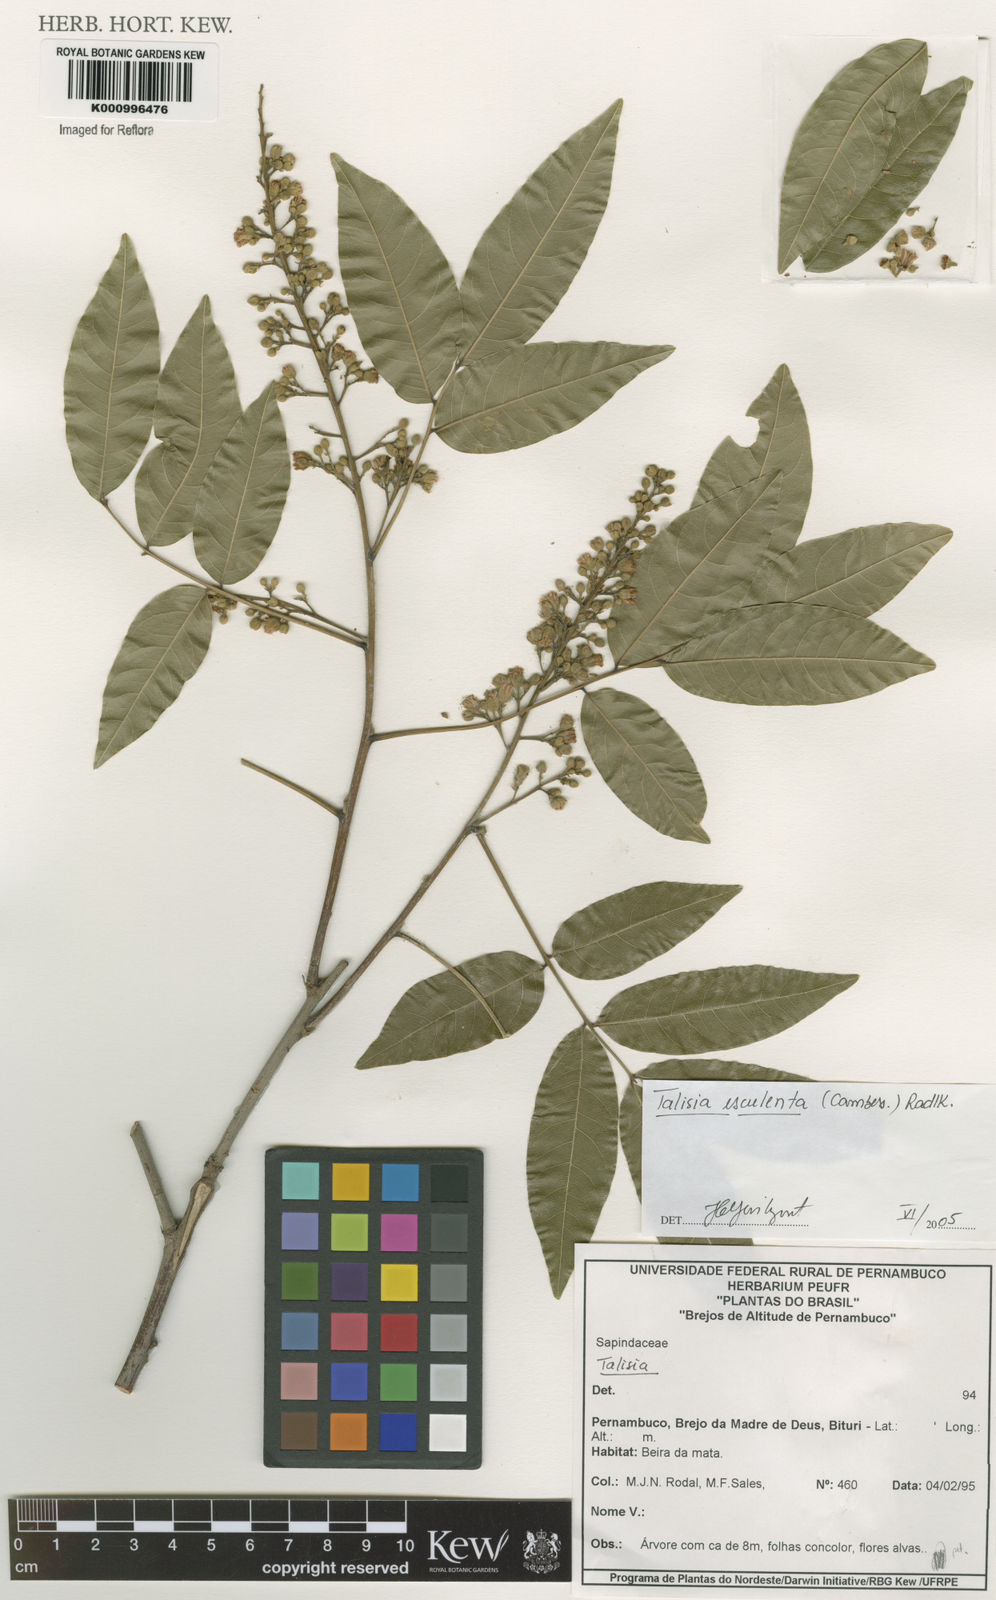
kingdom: Plantae
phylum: Tracheophyta
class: Magnoliopsida
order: Sapindales
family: Sapindaceae
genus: Talisia
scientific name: Talisia
